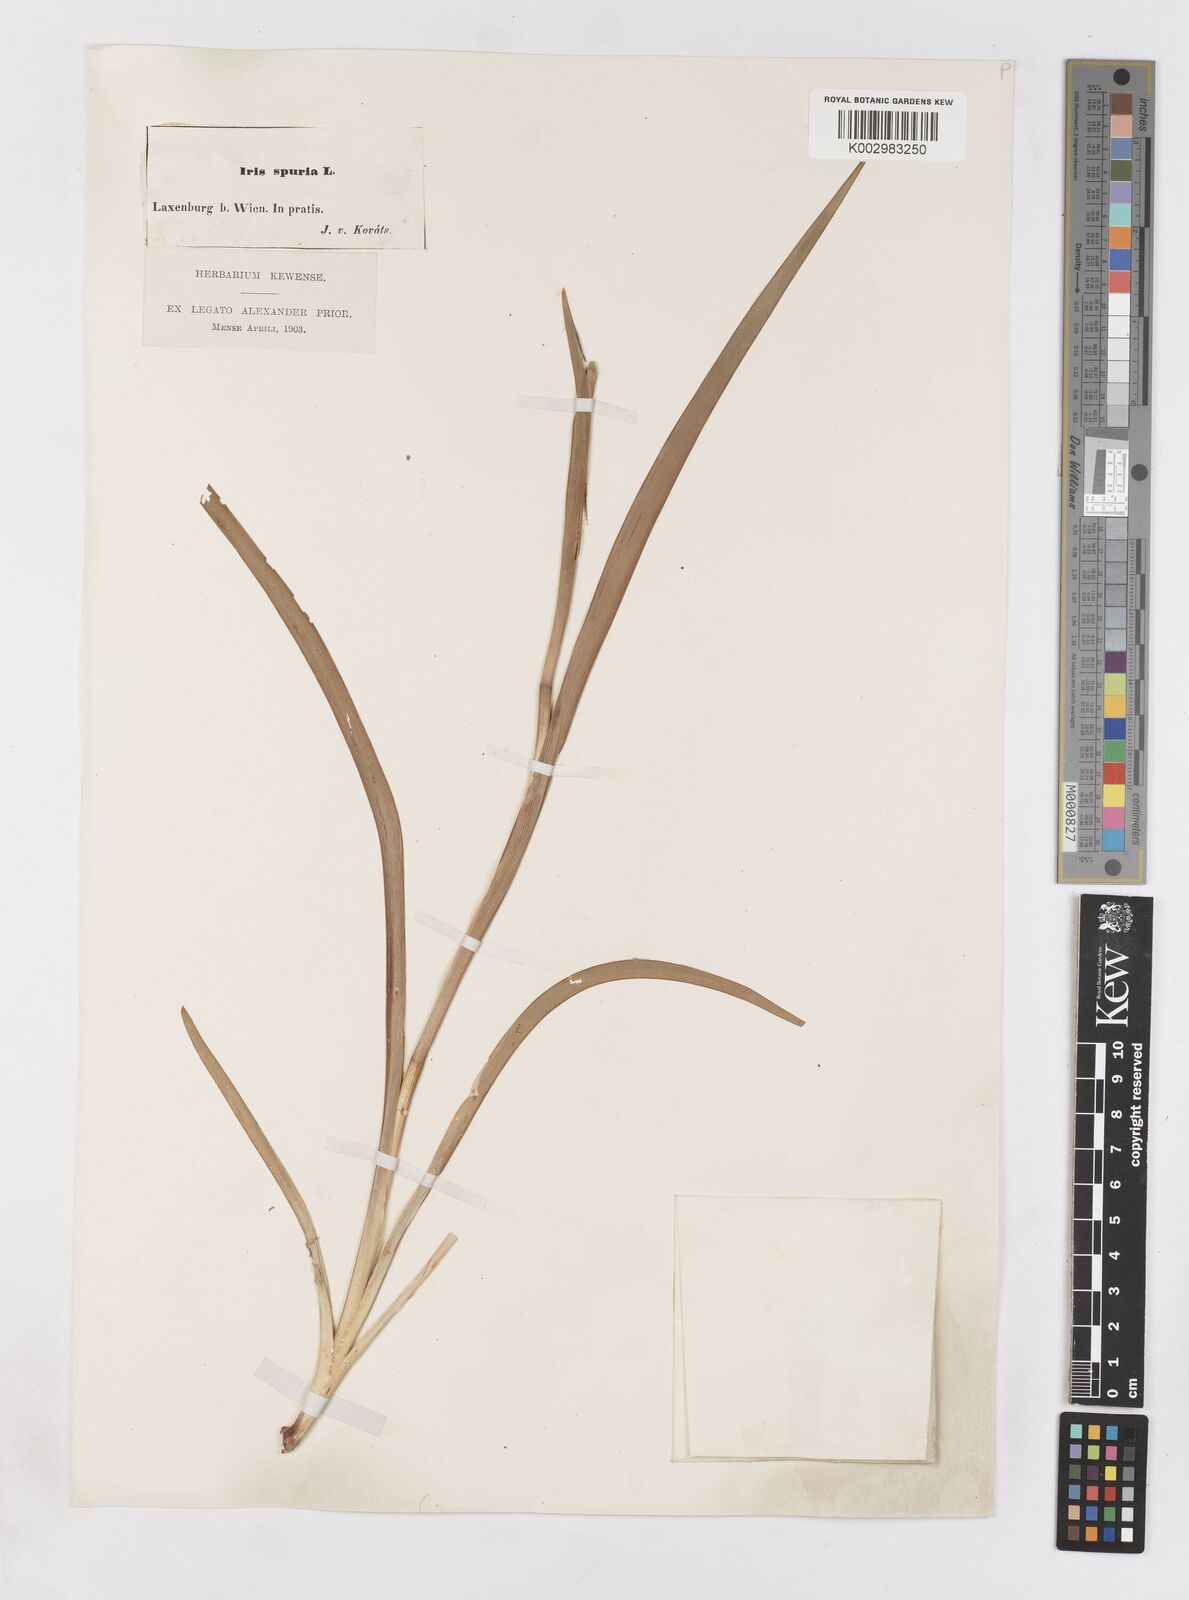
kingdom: Plantae
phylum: Tracheophyta
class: Liliopsida
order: Asparagales
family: Iridaceae
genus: Iris
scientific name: Iris spuria
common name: Blue iris
